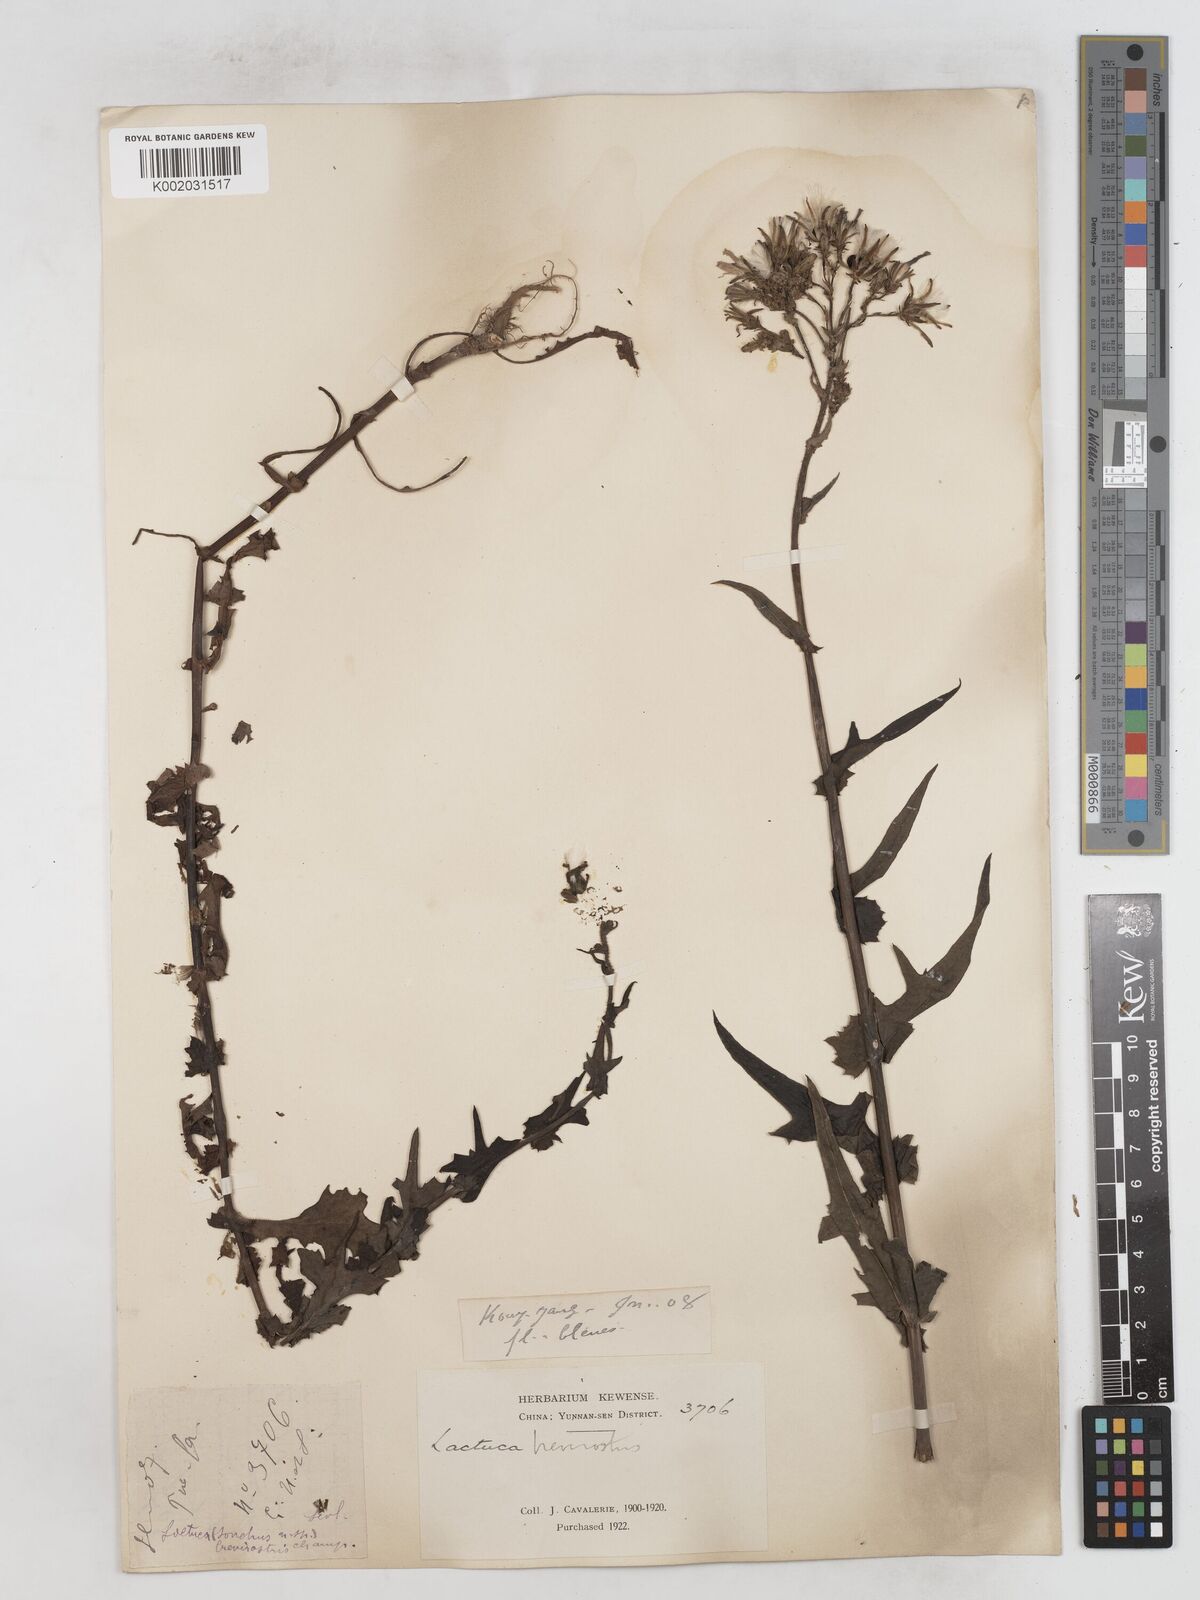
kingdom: Plantae
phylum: Tracheophyta
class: Magnoliopsida
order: Asterales
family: Asteraceae
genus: Lactuca
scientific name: Lactuca indica
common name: Wild lettuce
